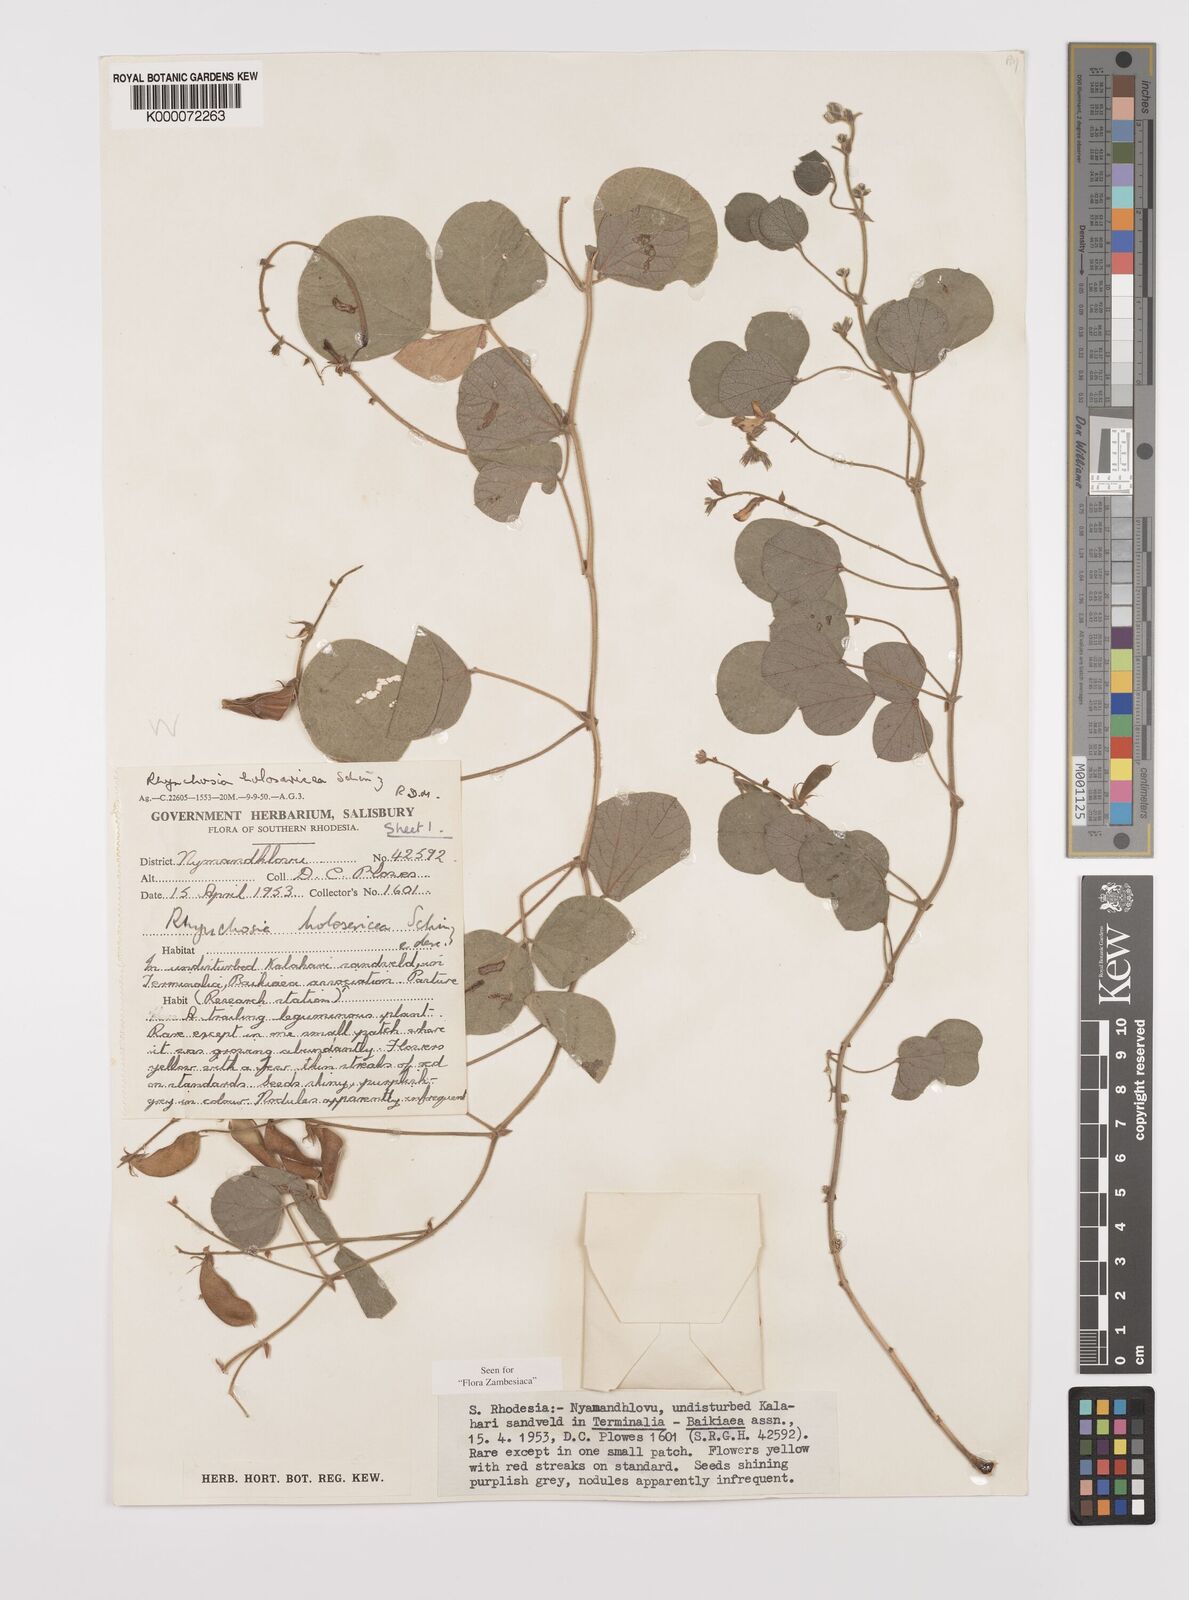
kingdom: Plantae
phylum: Tracheophyta
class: Magnoliopsida
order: Fabales
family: Fabaceae
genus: Rhynchosia
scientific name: Rhynchosia holosericea
